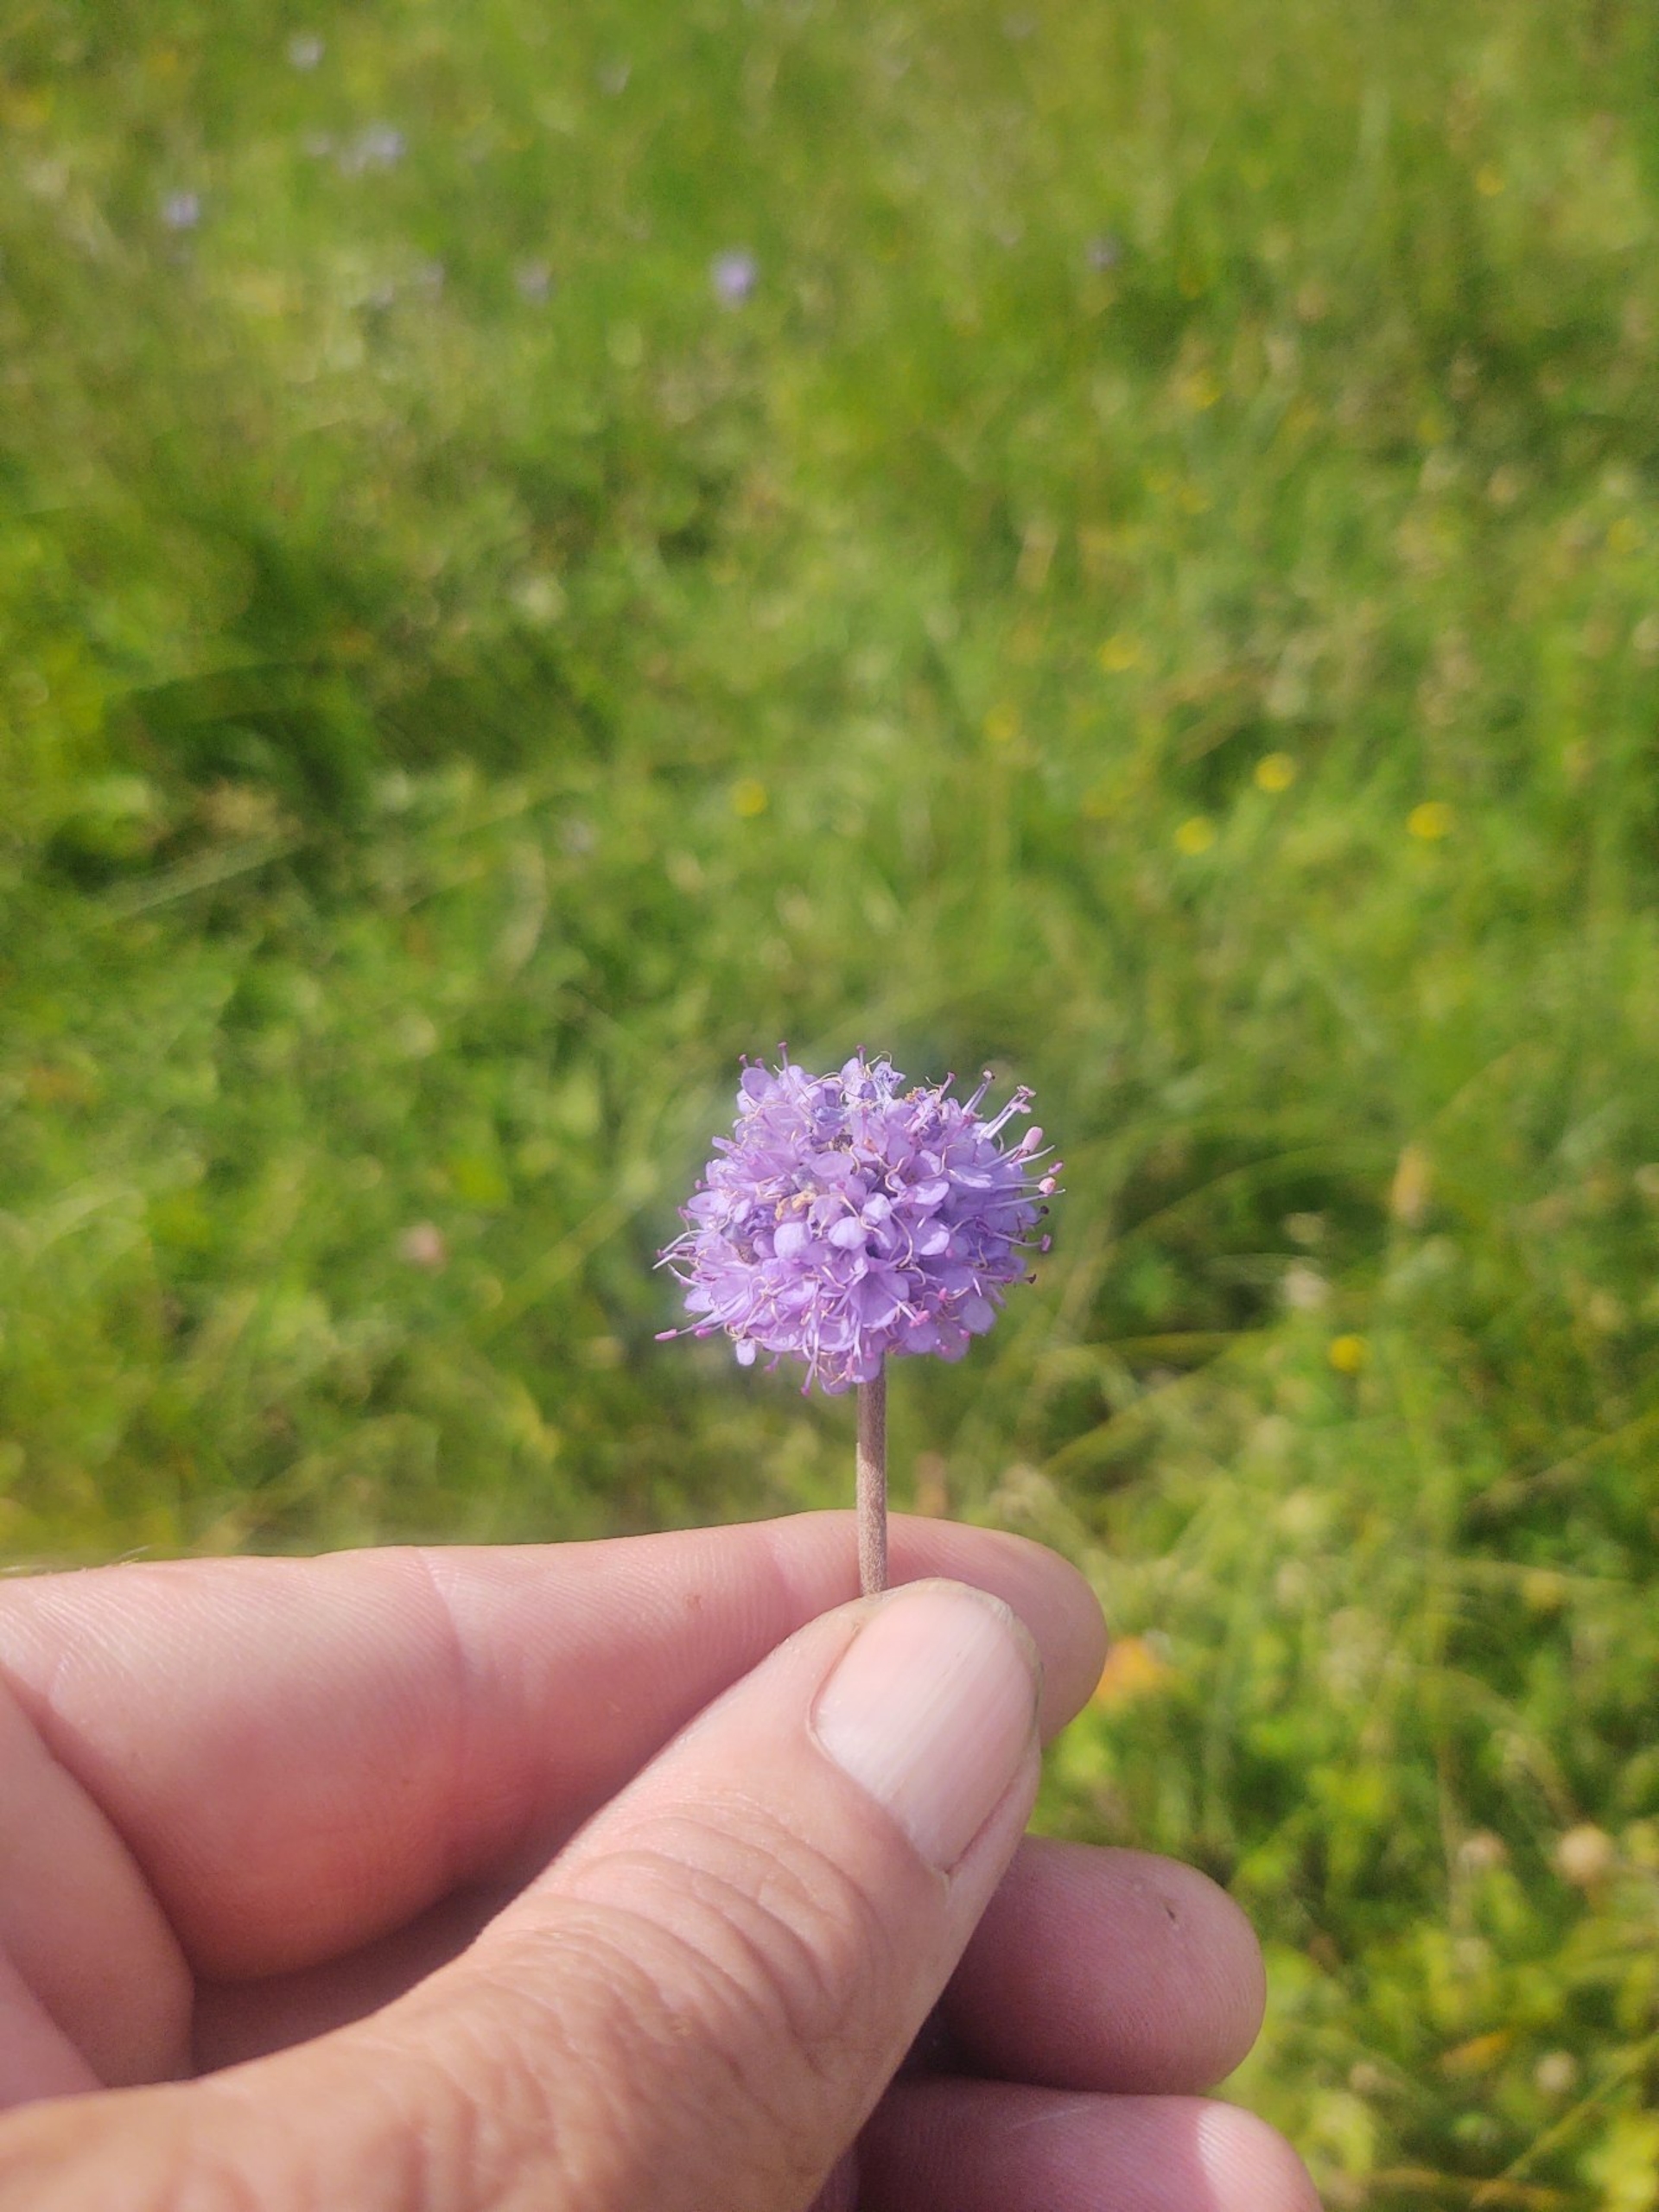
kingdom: Plantae
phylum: Tracheophyta
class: Magnoliopsida
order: Dipsacales
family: Caprifoliaceae
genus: Succisa
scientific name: Succisa pratensis
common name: Djævelsbid
